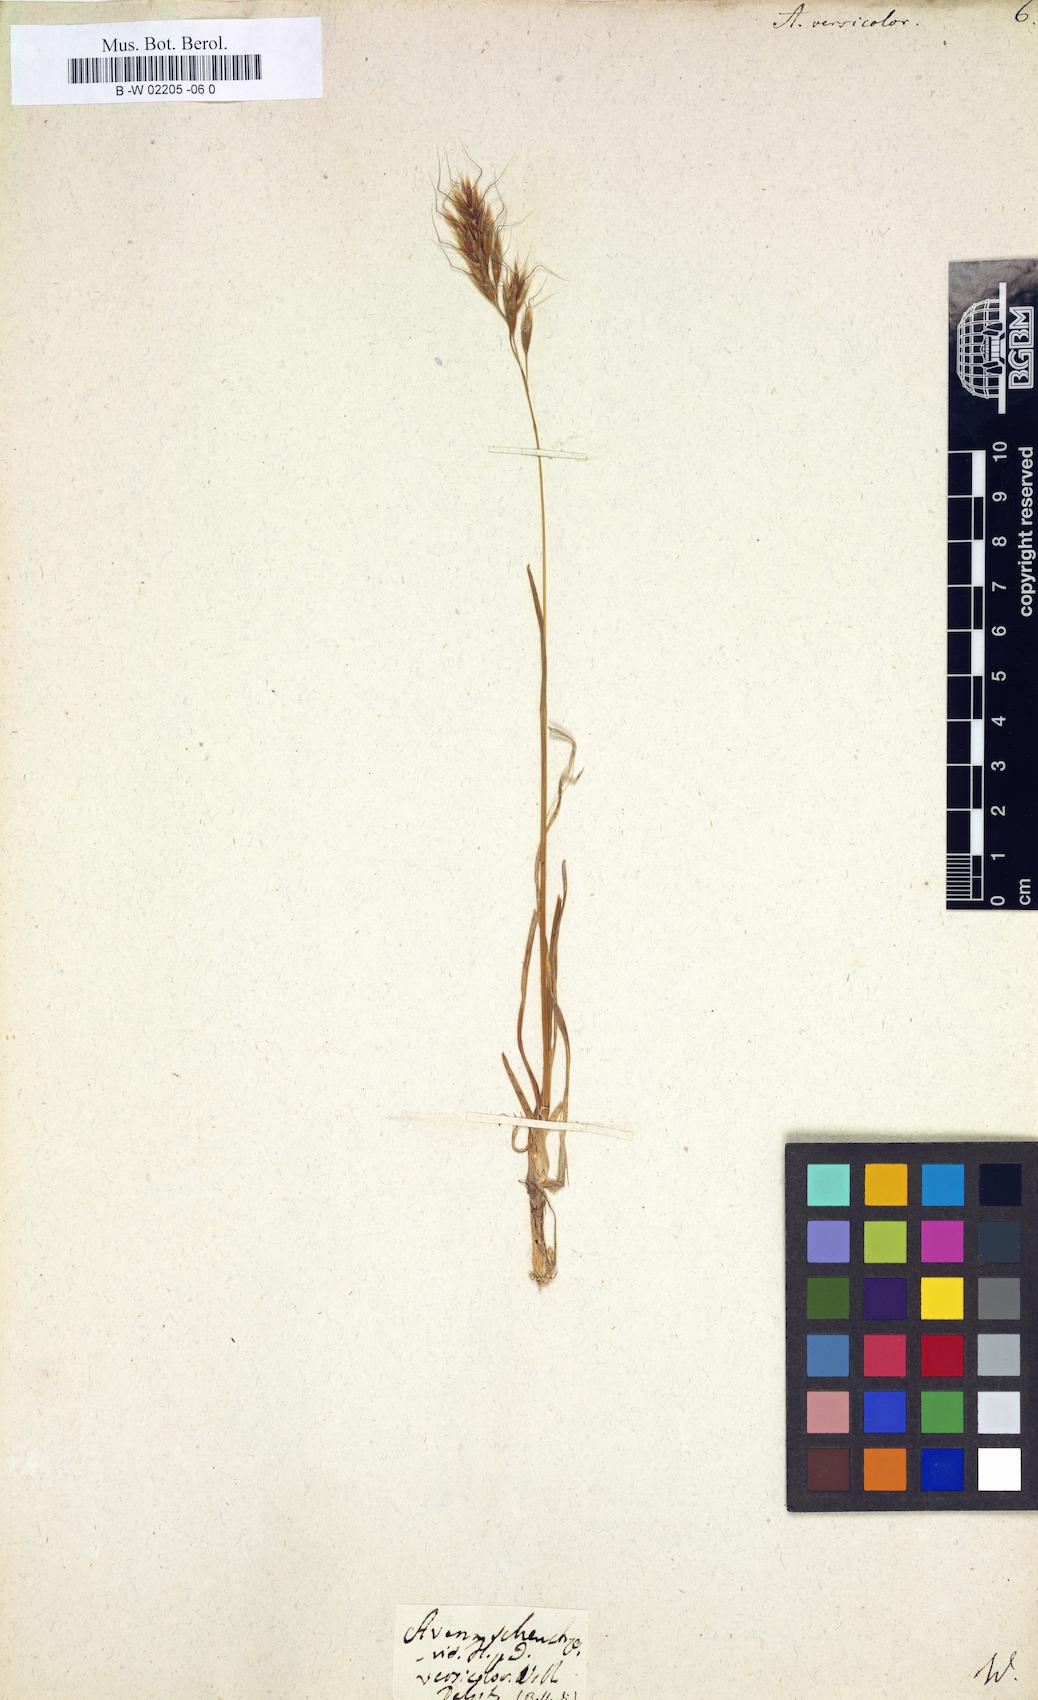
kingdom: Plantae
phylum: Tracheophyta
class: Liliopsida
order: Poales
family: Poaceae
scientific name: Poaceae
